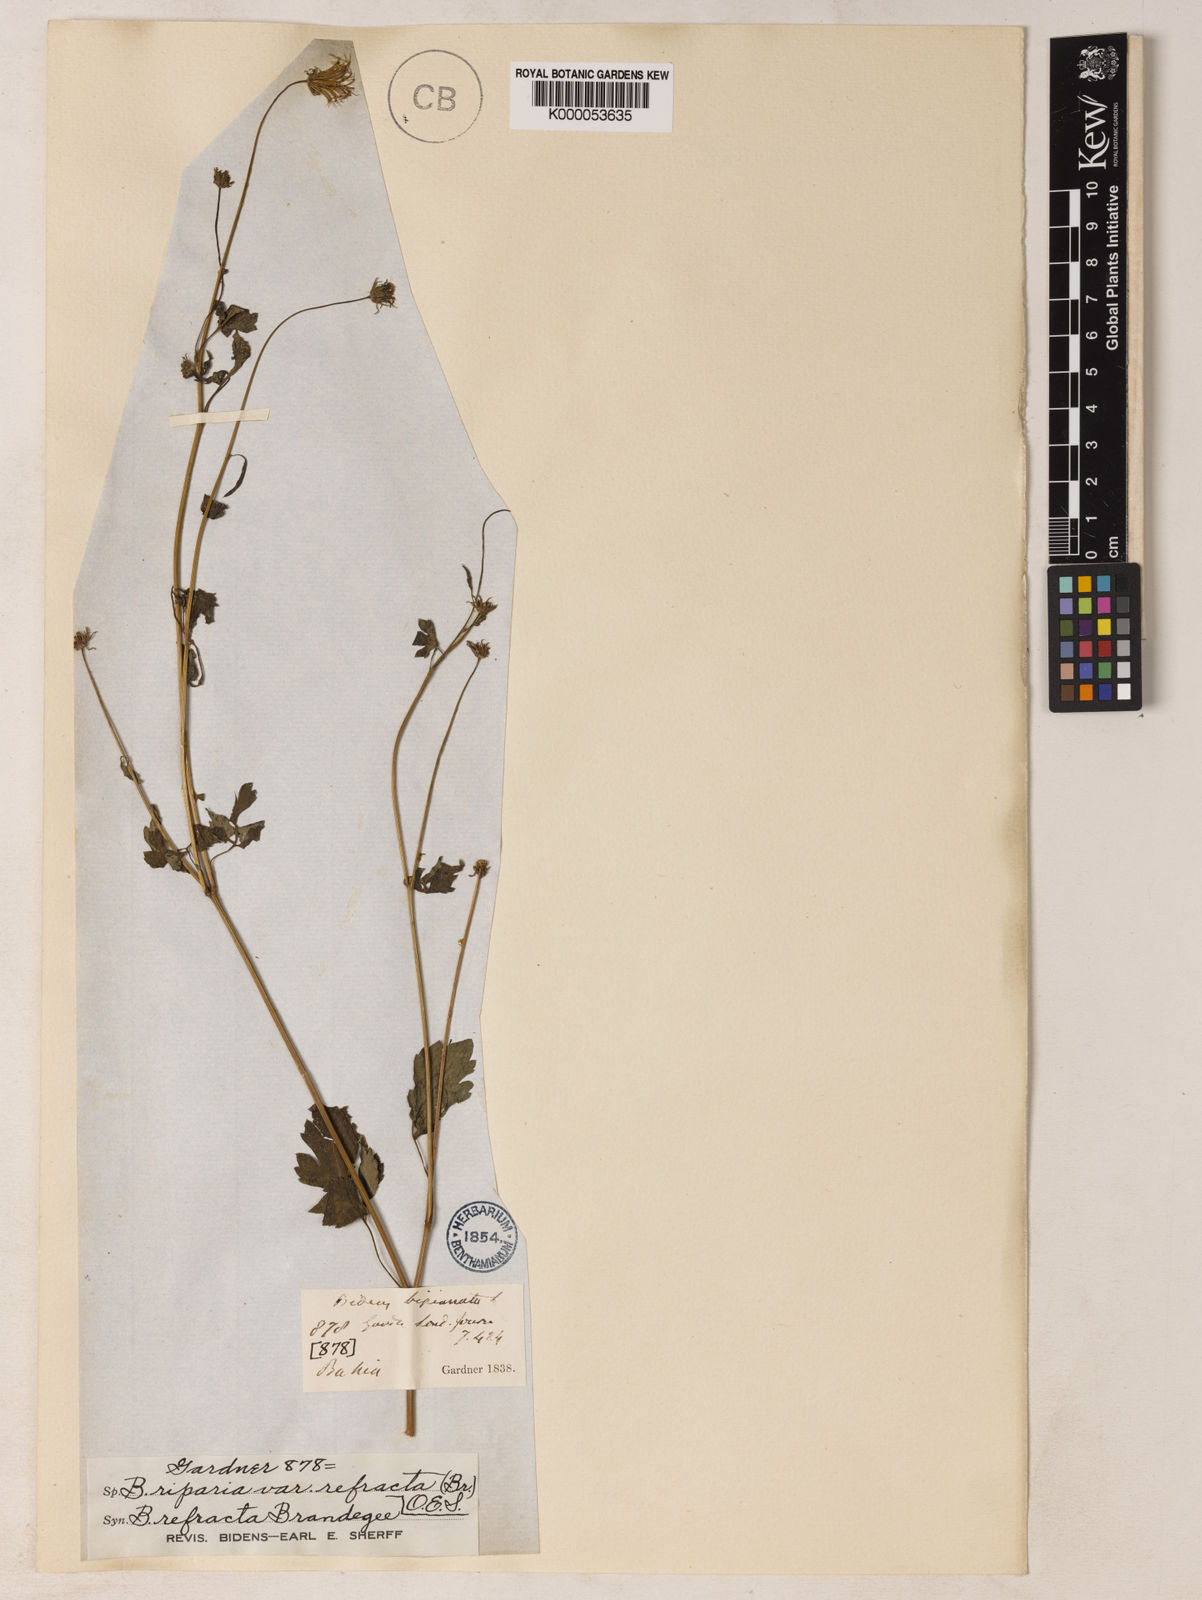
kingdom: Plantae
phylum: Tracheophyta
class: Magnoliopsida
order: Asterales
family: Asteraceae
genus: Bidens
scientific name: Bidens riparia
